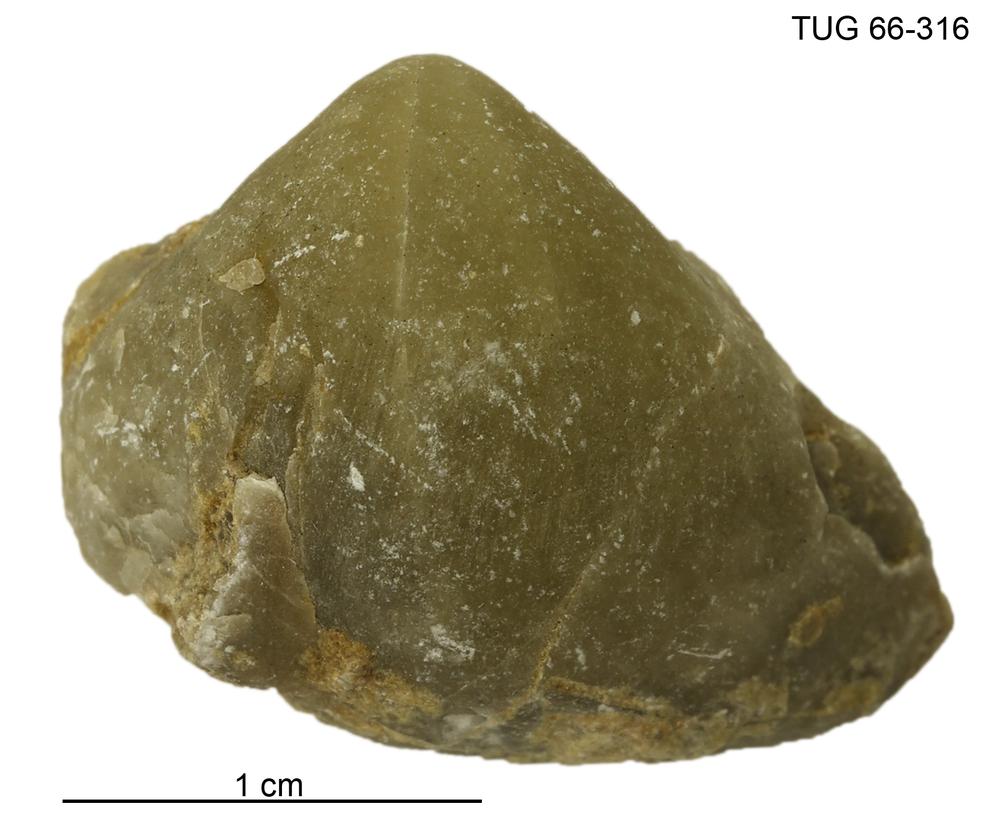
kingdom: Animalia
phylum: Brachiopoda
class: Rhynchonellata
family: Virgianidae
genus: Borealis
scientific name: Borealis
